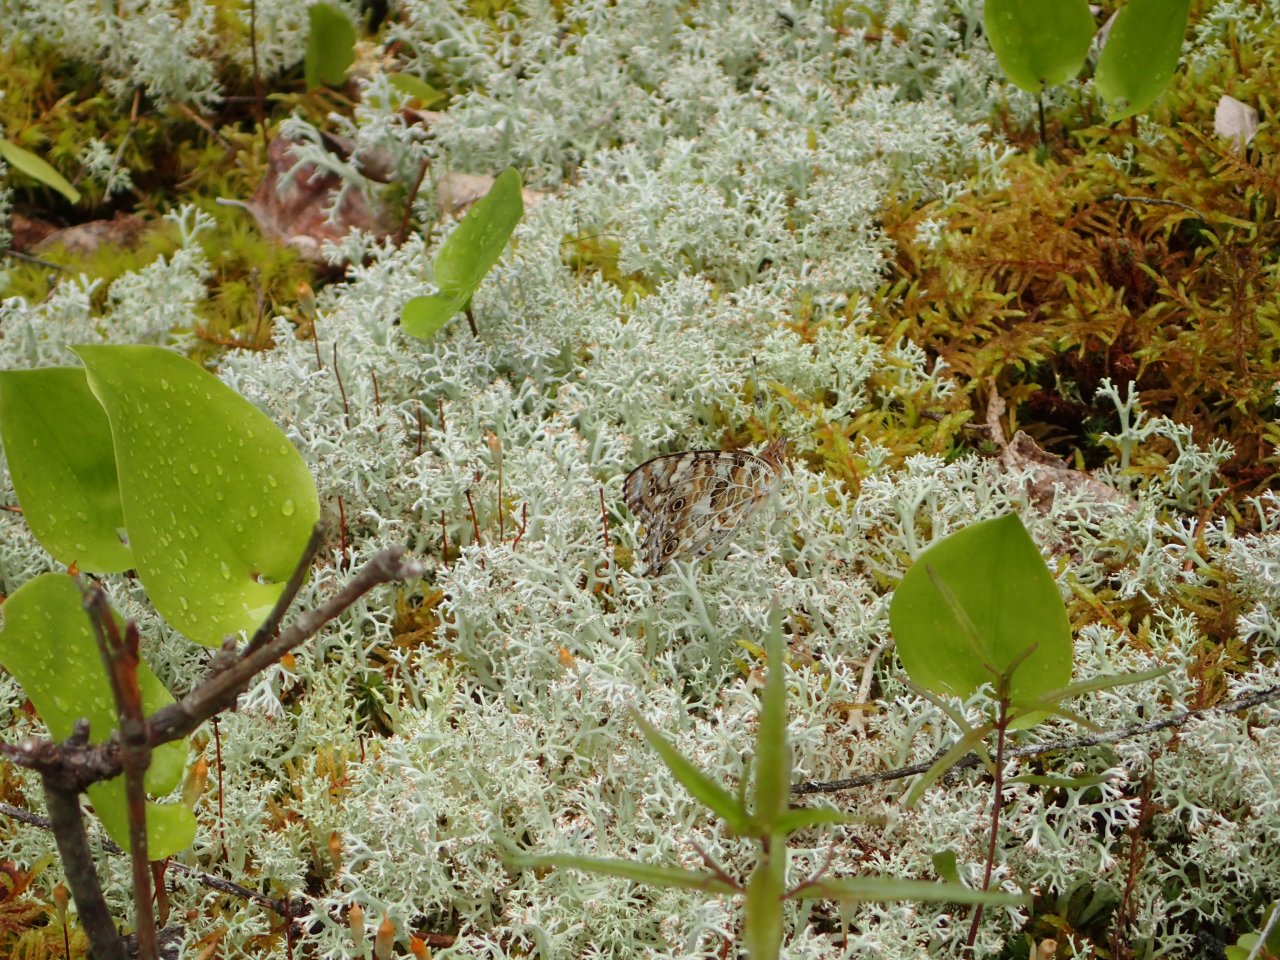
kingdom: Animalia
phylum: Arthropoda
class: Insecta
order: Lepidoptera
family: Nymphalidae
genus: Vanessa
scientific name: Vanessa cardui
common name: Painted Lady
